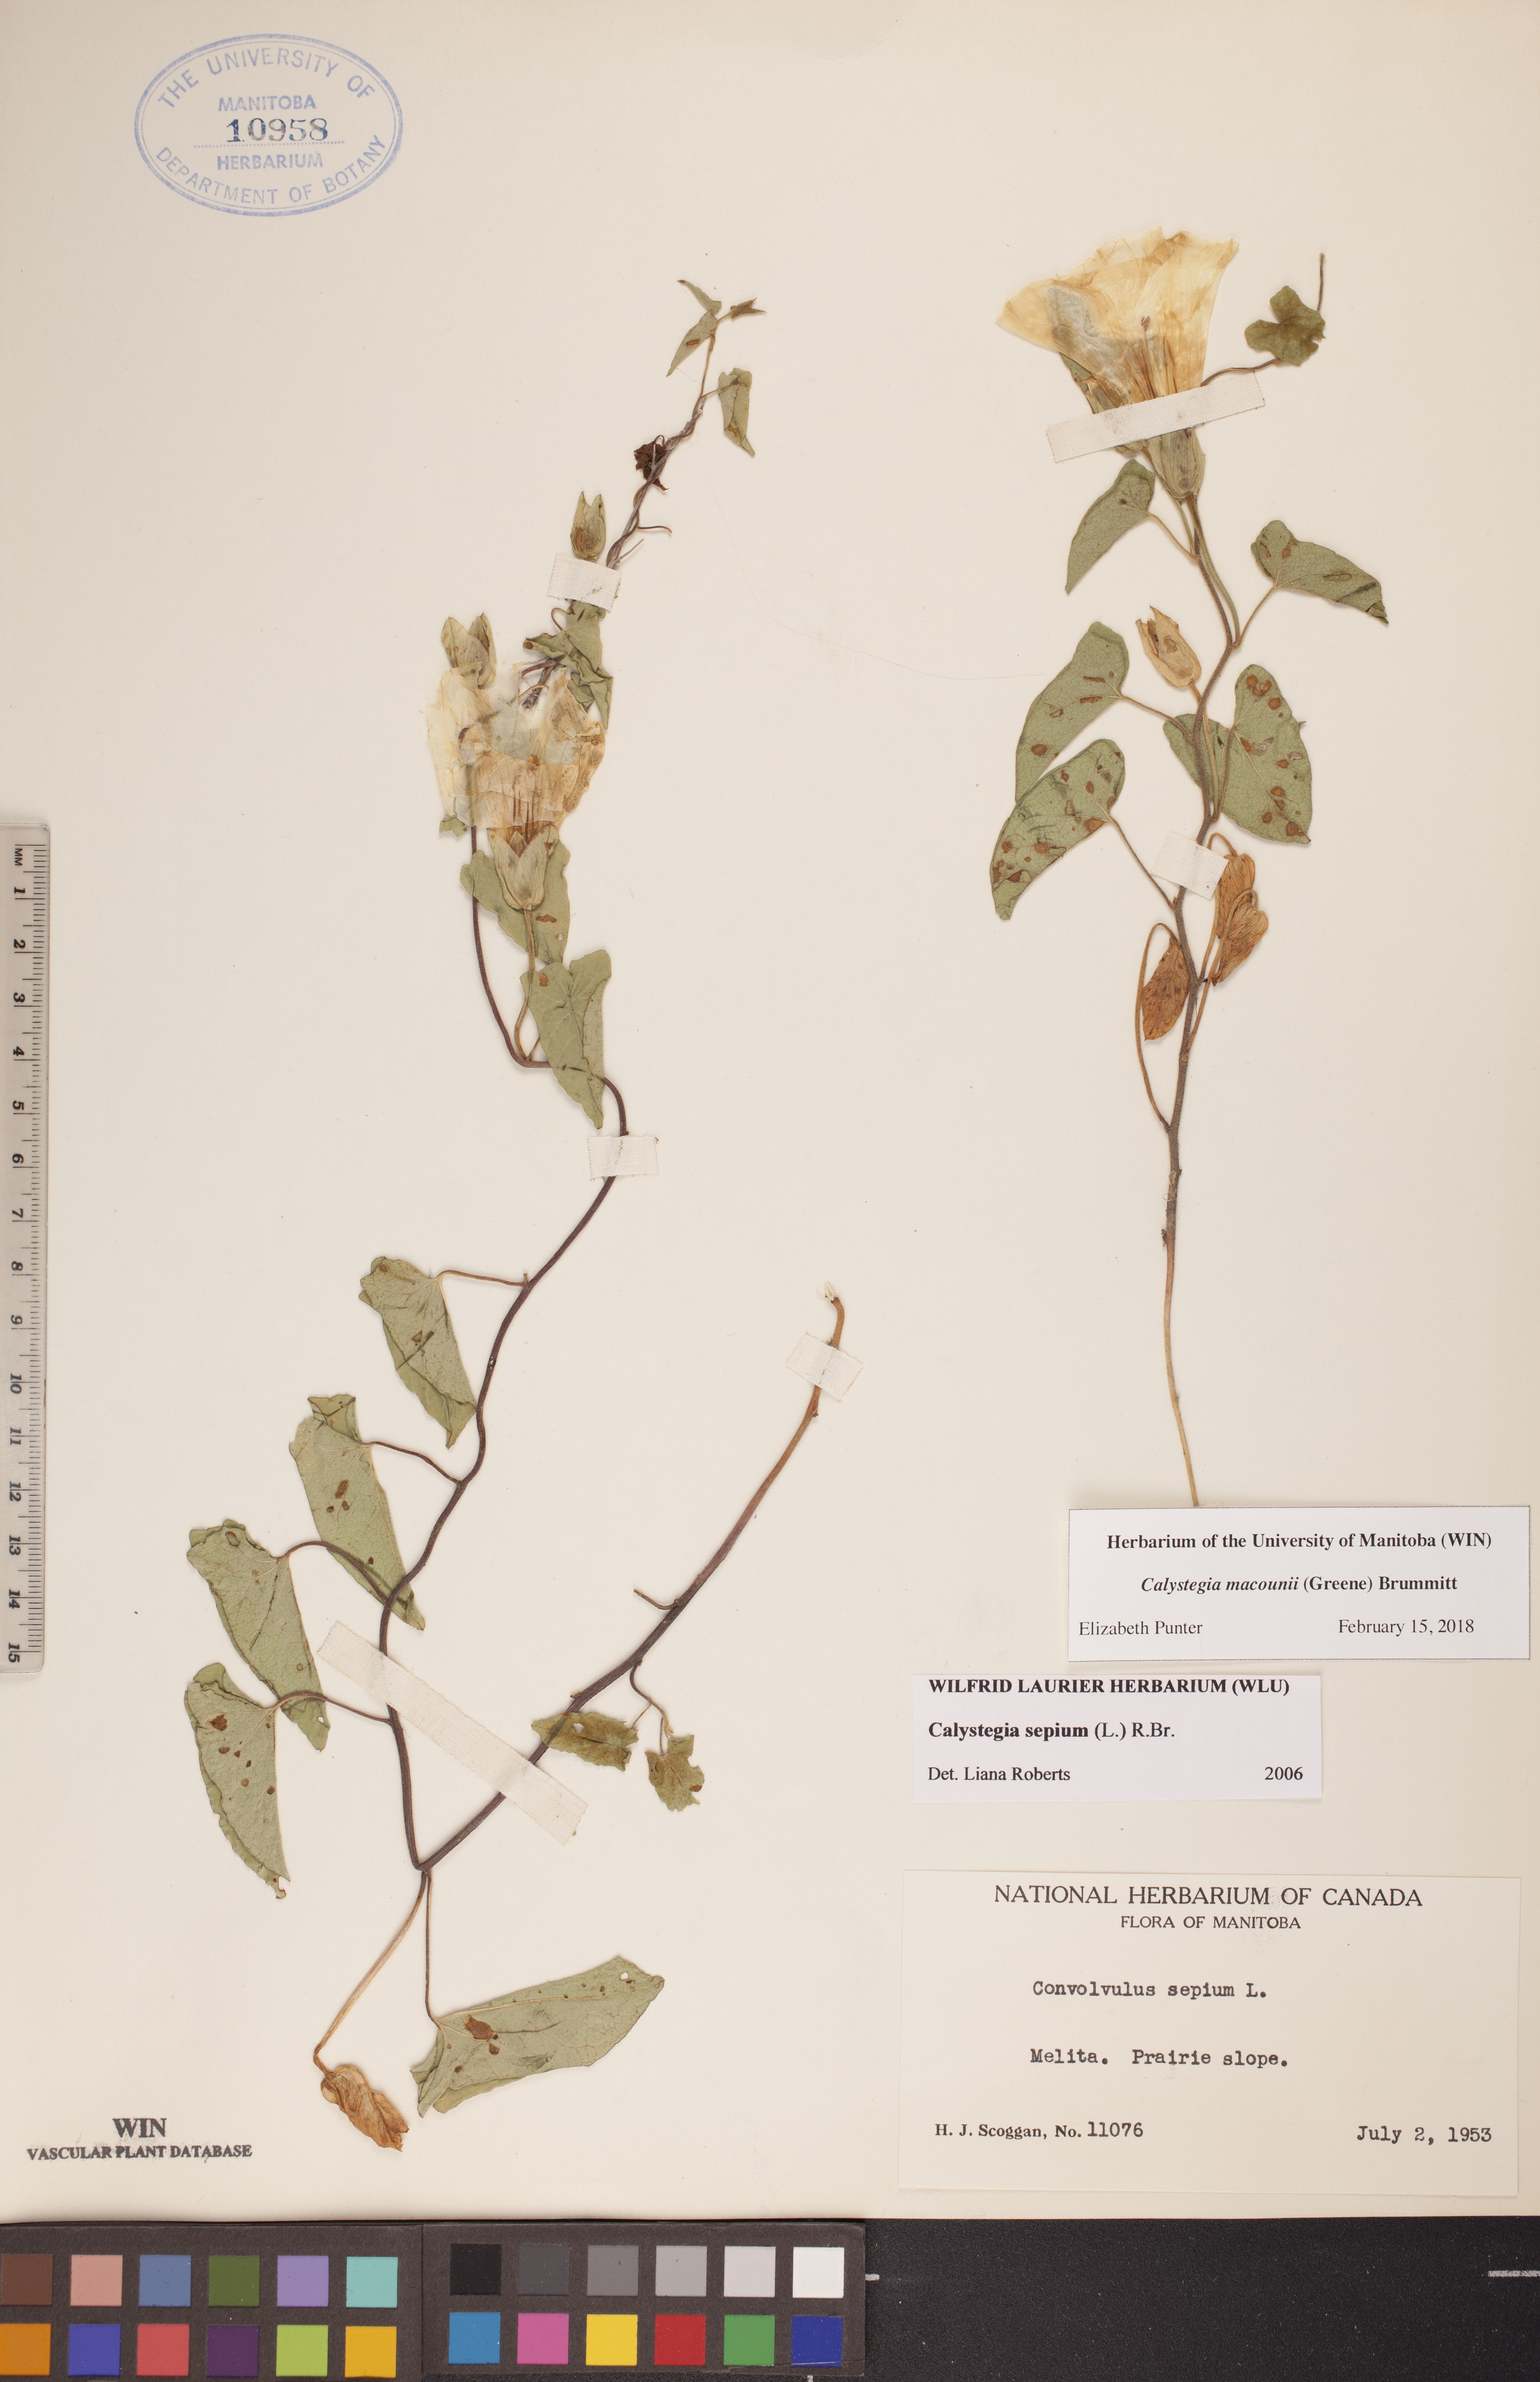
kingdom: Plantae
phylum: Tracheophyta
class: Magnoliopsida
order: Solanales
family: Convolvulaceae
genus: Calystegia
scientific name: Calystegia macounii
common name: Macoun's bindweed
